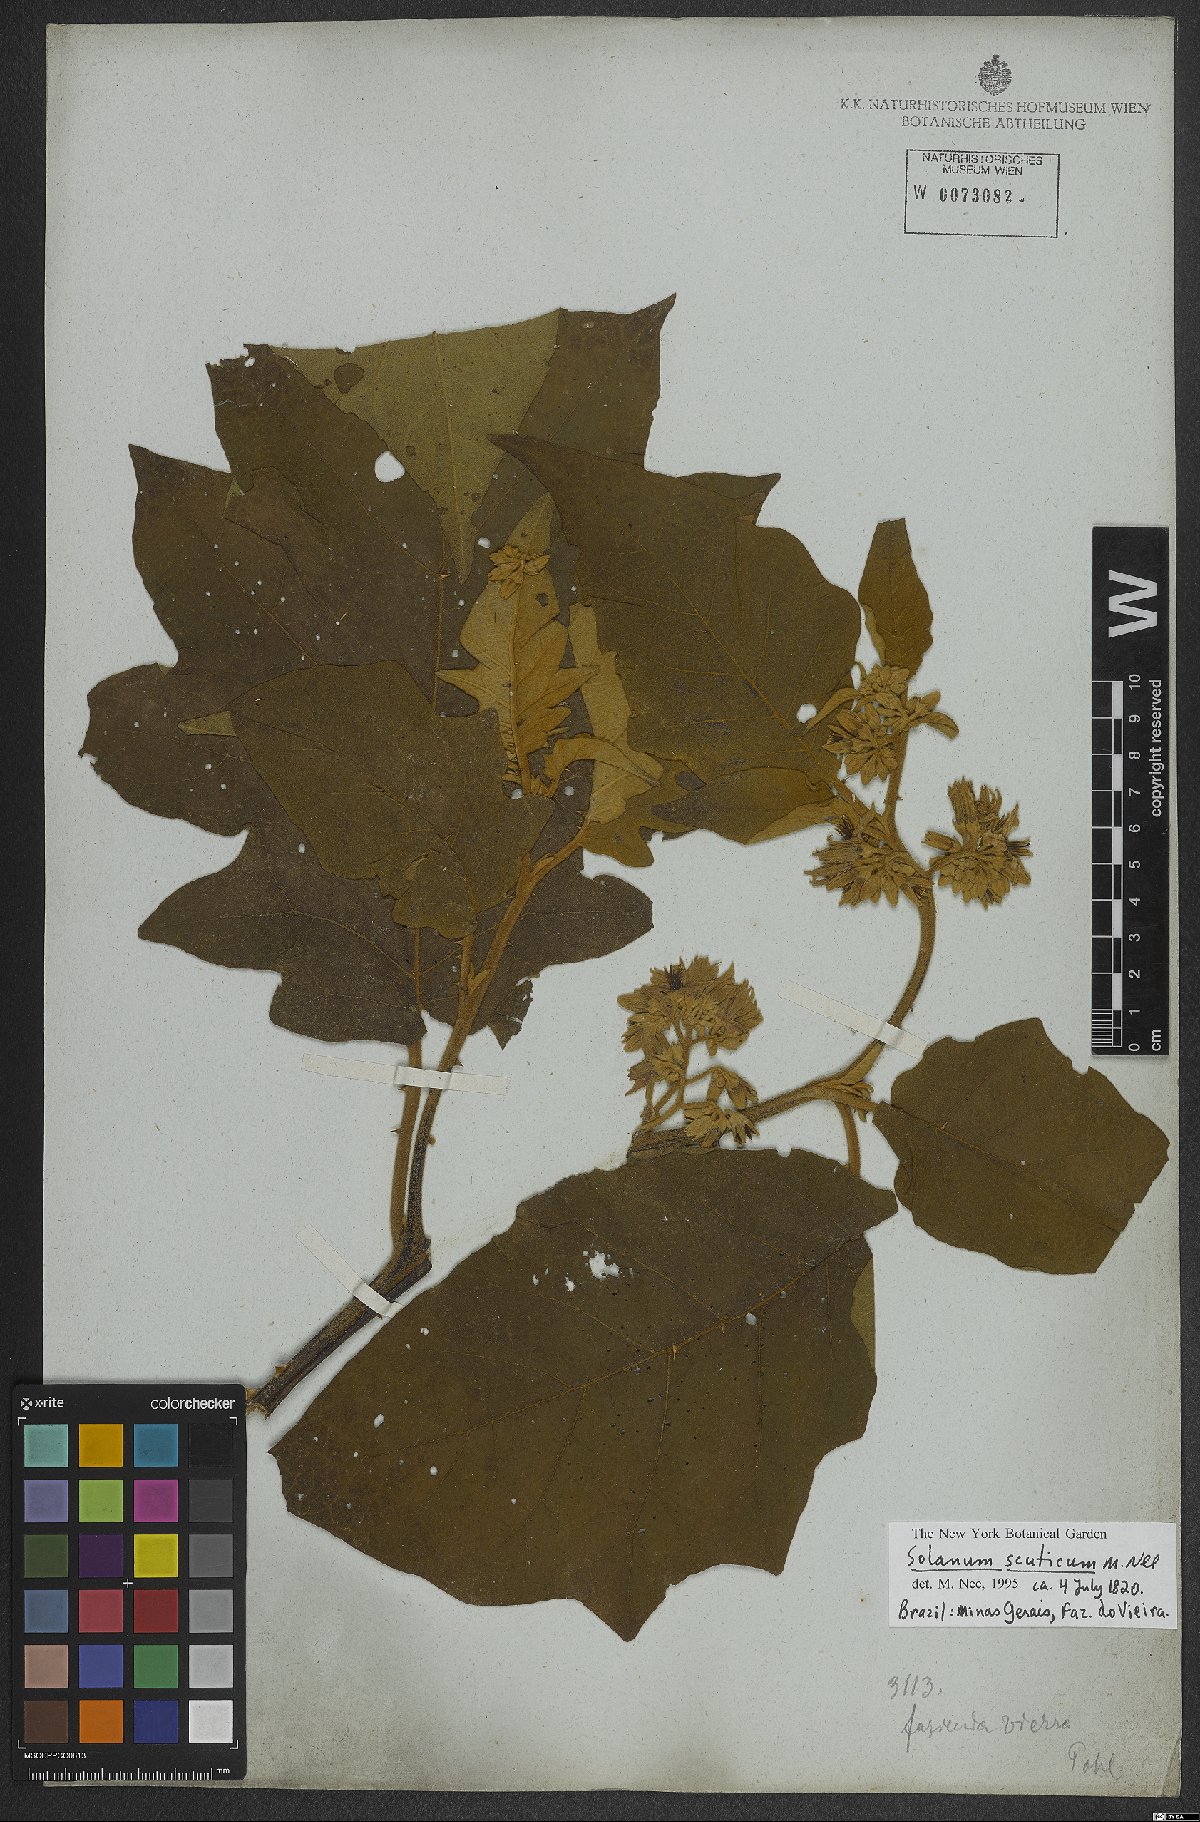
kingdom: Plantae
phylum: Tracheophyta
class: Magnoliopsida
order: Solanales
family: Solanaceae
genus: Solanum
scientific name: Solanum scuticum
